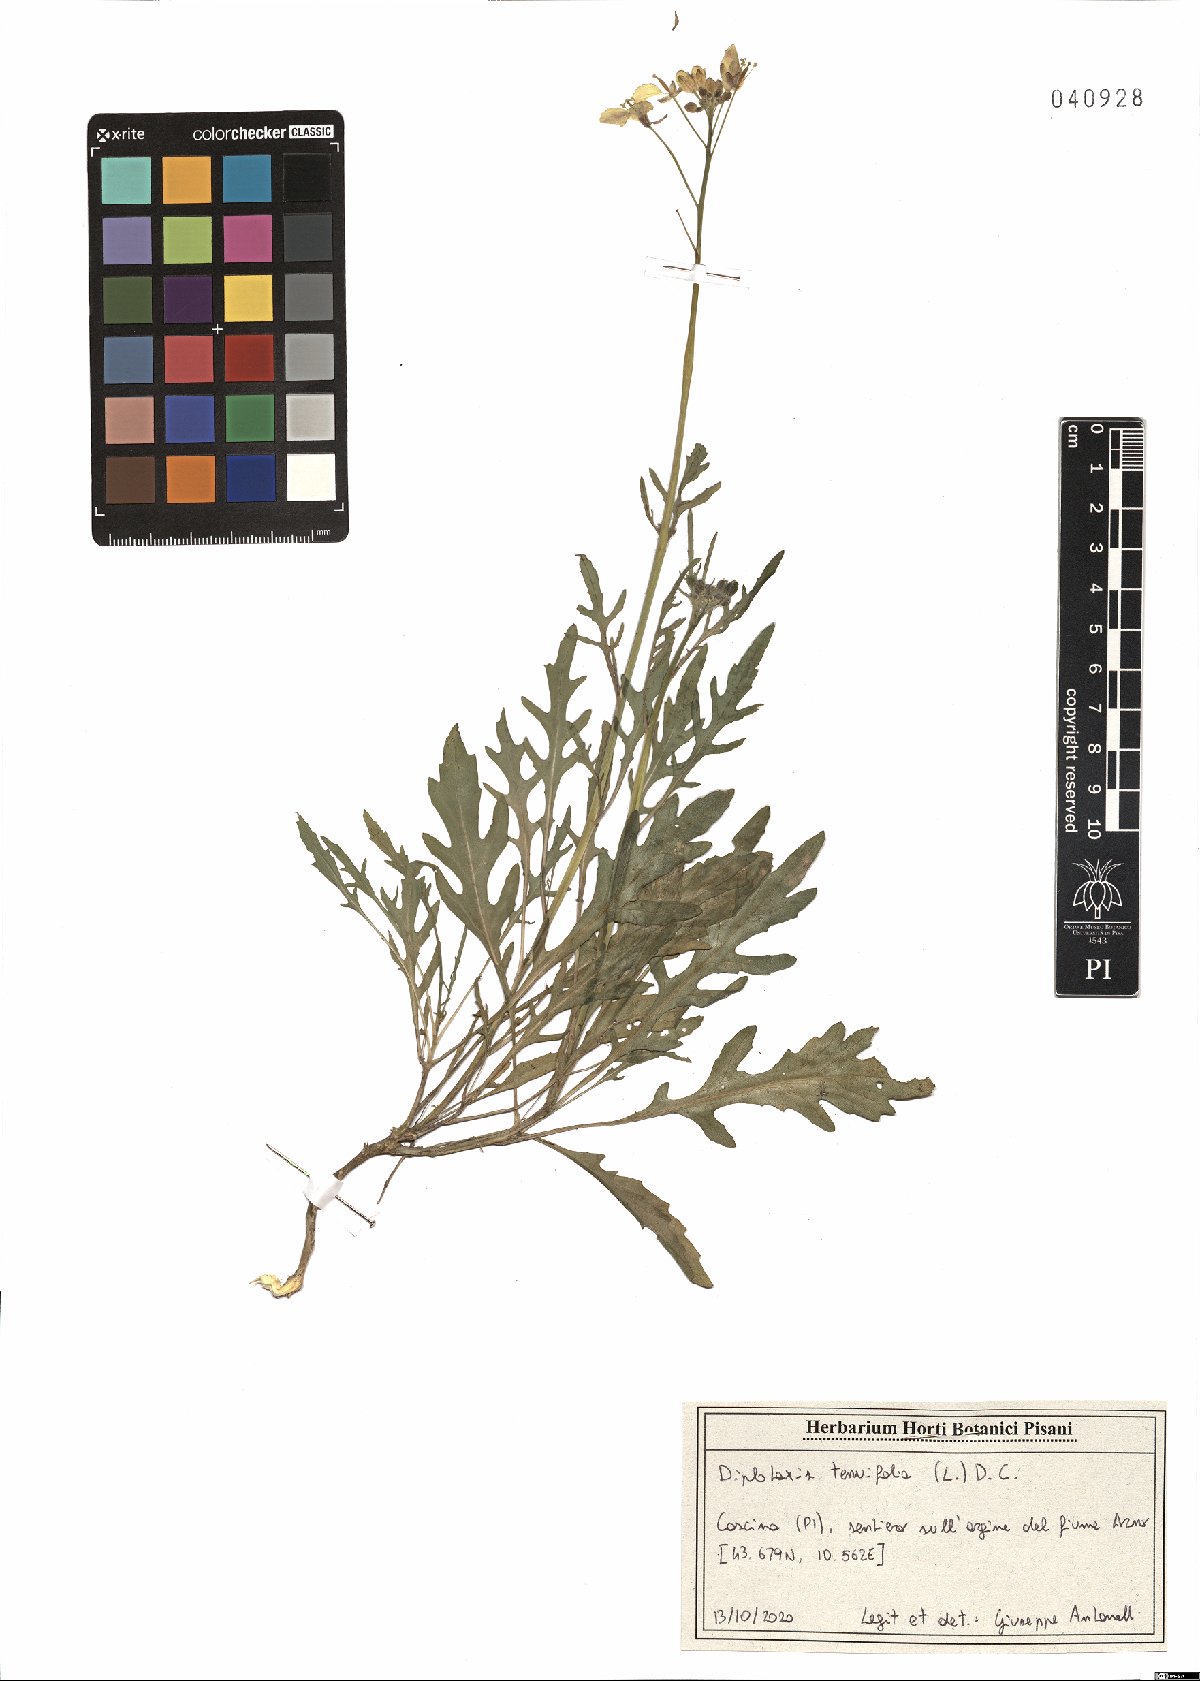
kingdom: Plantae
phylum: Tracheophyta
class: Magnoliopsida
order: Brassicales
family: Brassicaceae
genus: Diplotaxis
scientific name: Diplotaxis tenuifolia
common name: Perennial wall-rocket
